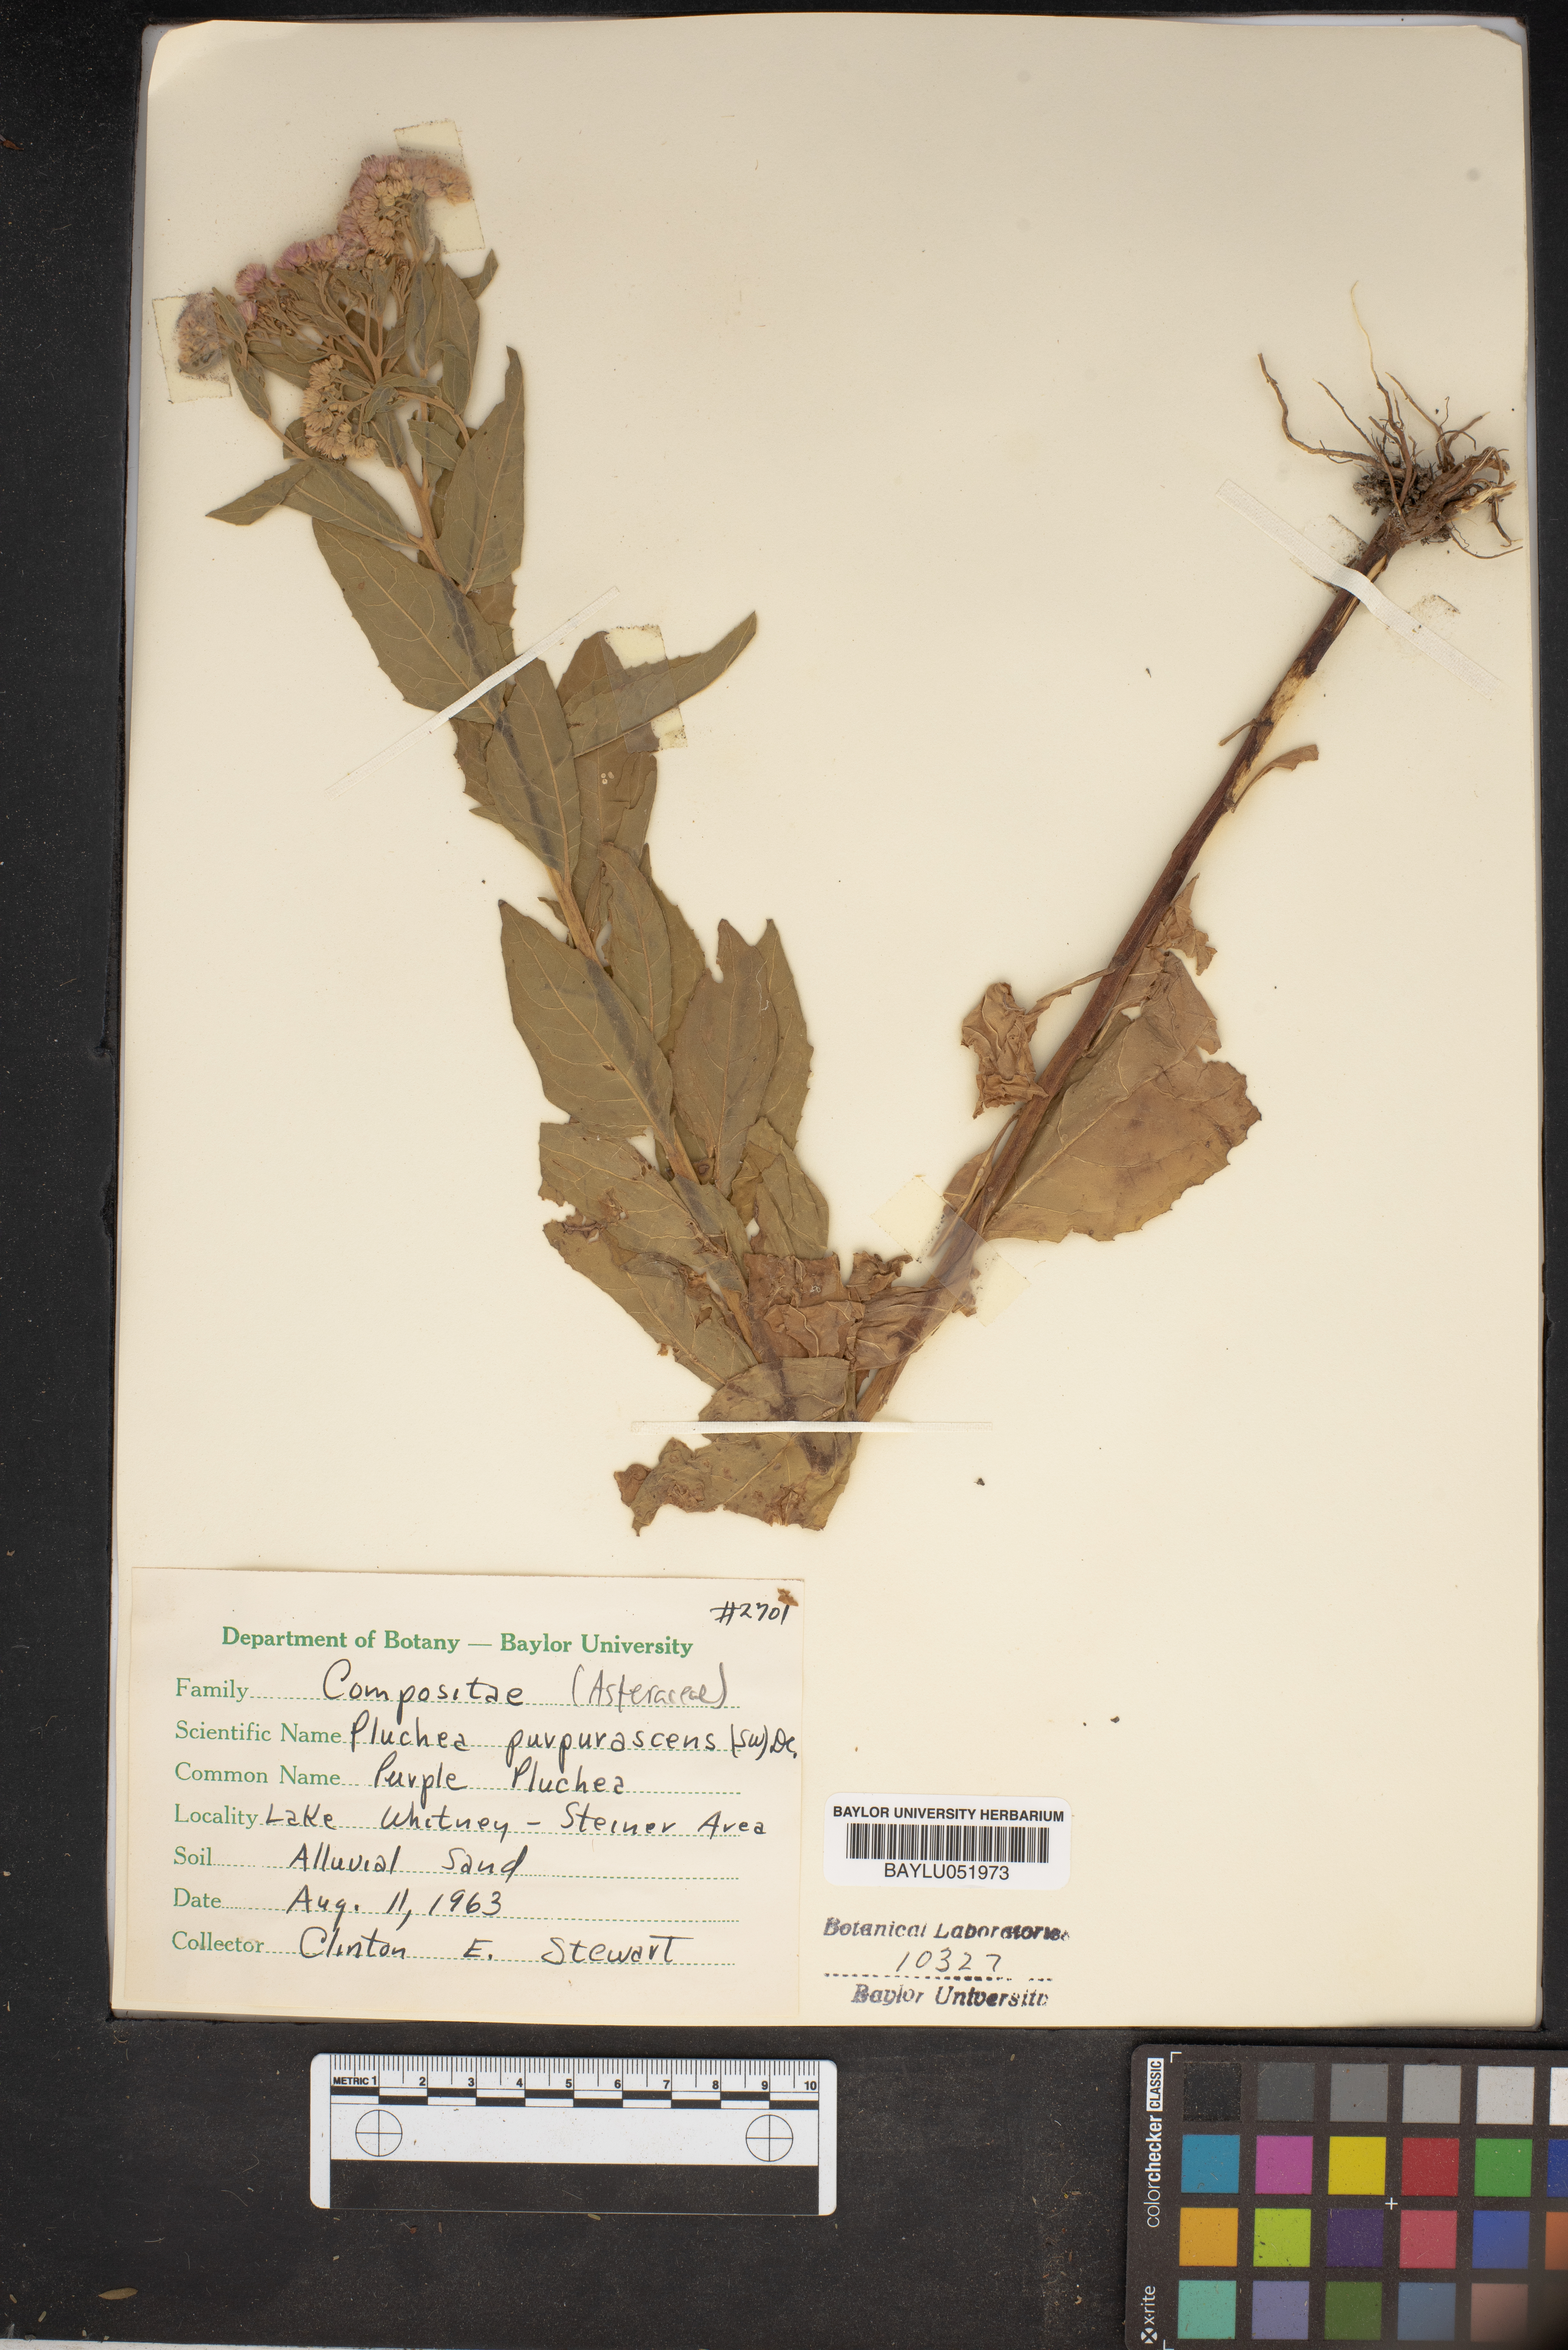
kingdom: Plantae
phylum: Tracheophyta
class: Magnoliopsida
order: Asterales
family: Asteraceae
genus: Pluchea
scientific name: Pluchea odorata
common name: Saltmarsh fleabane
